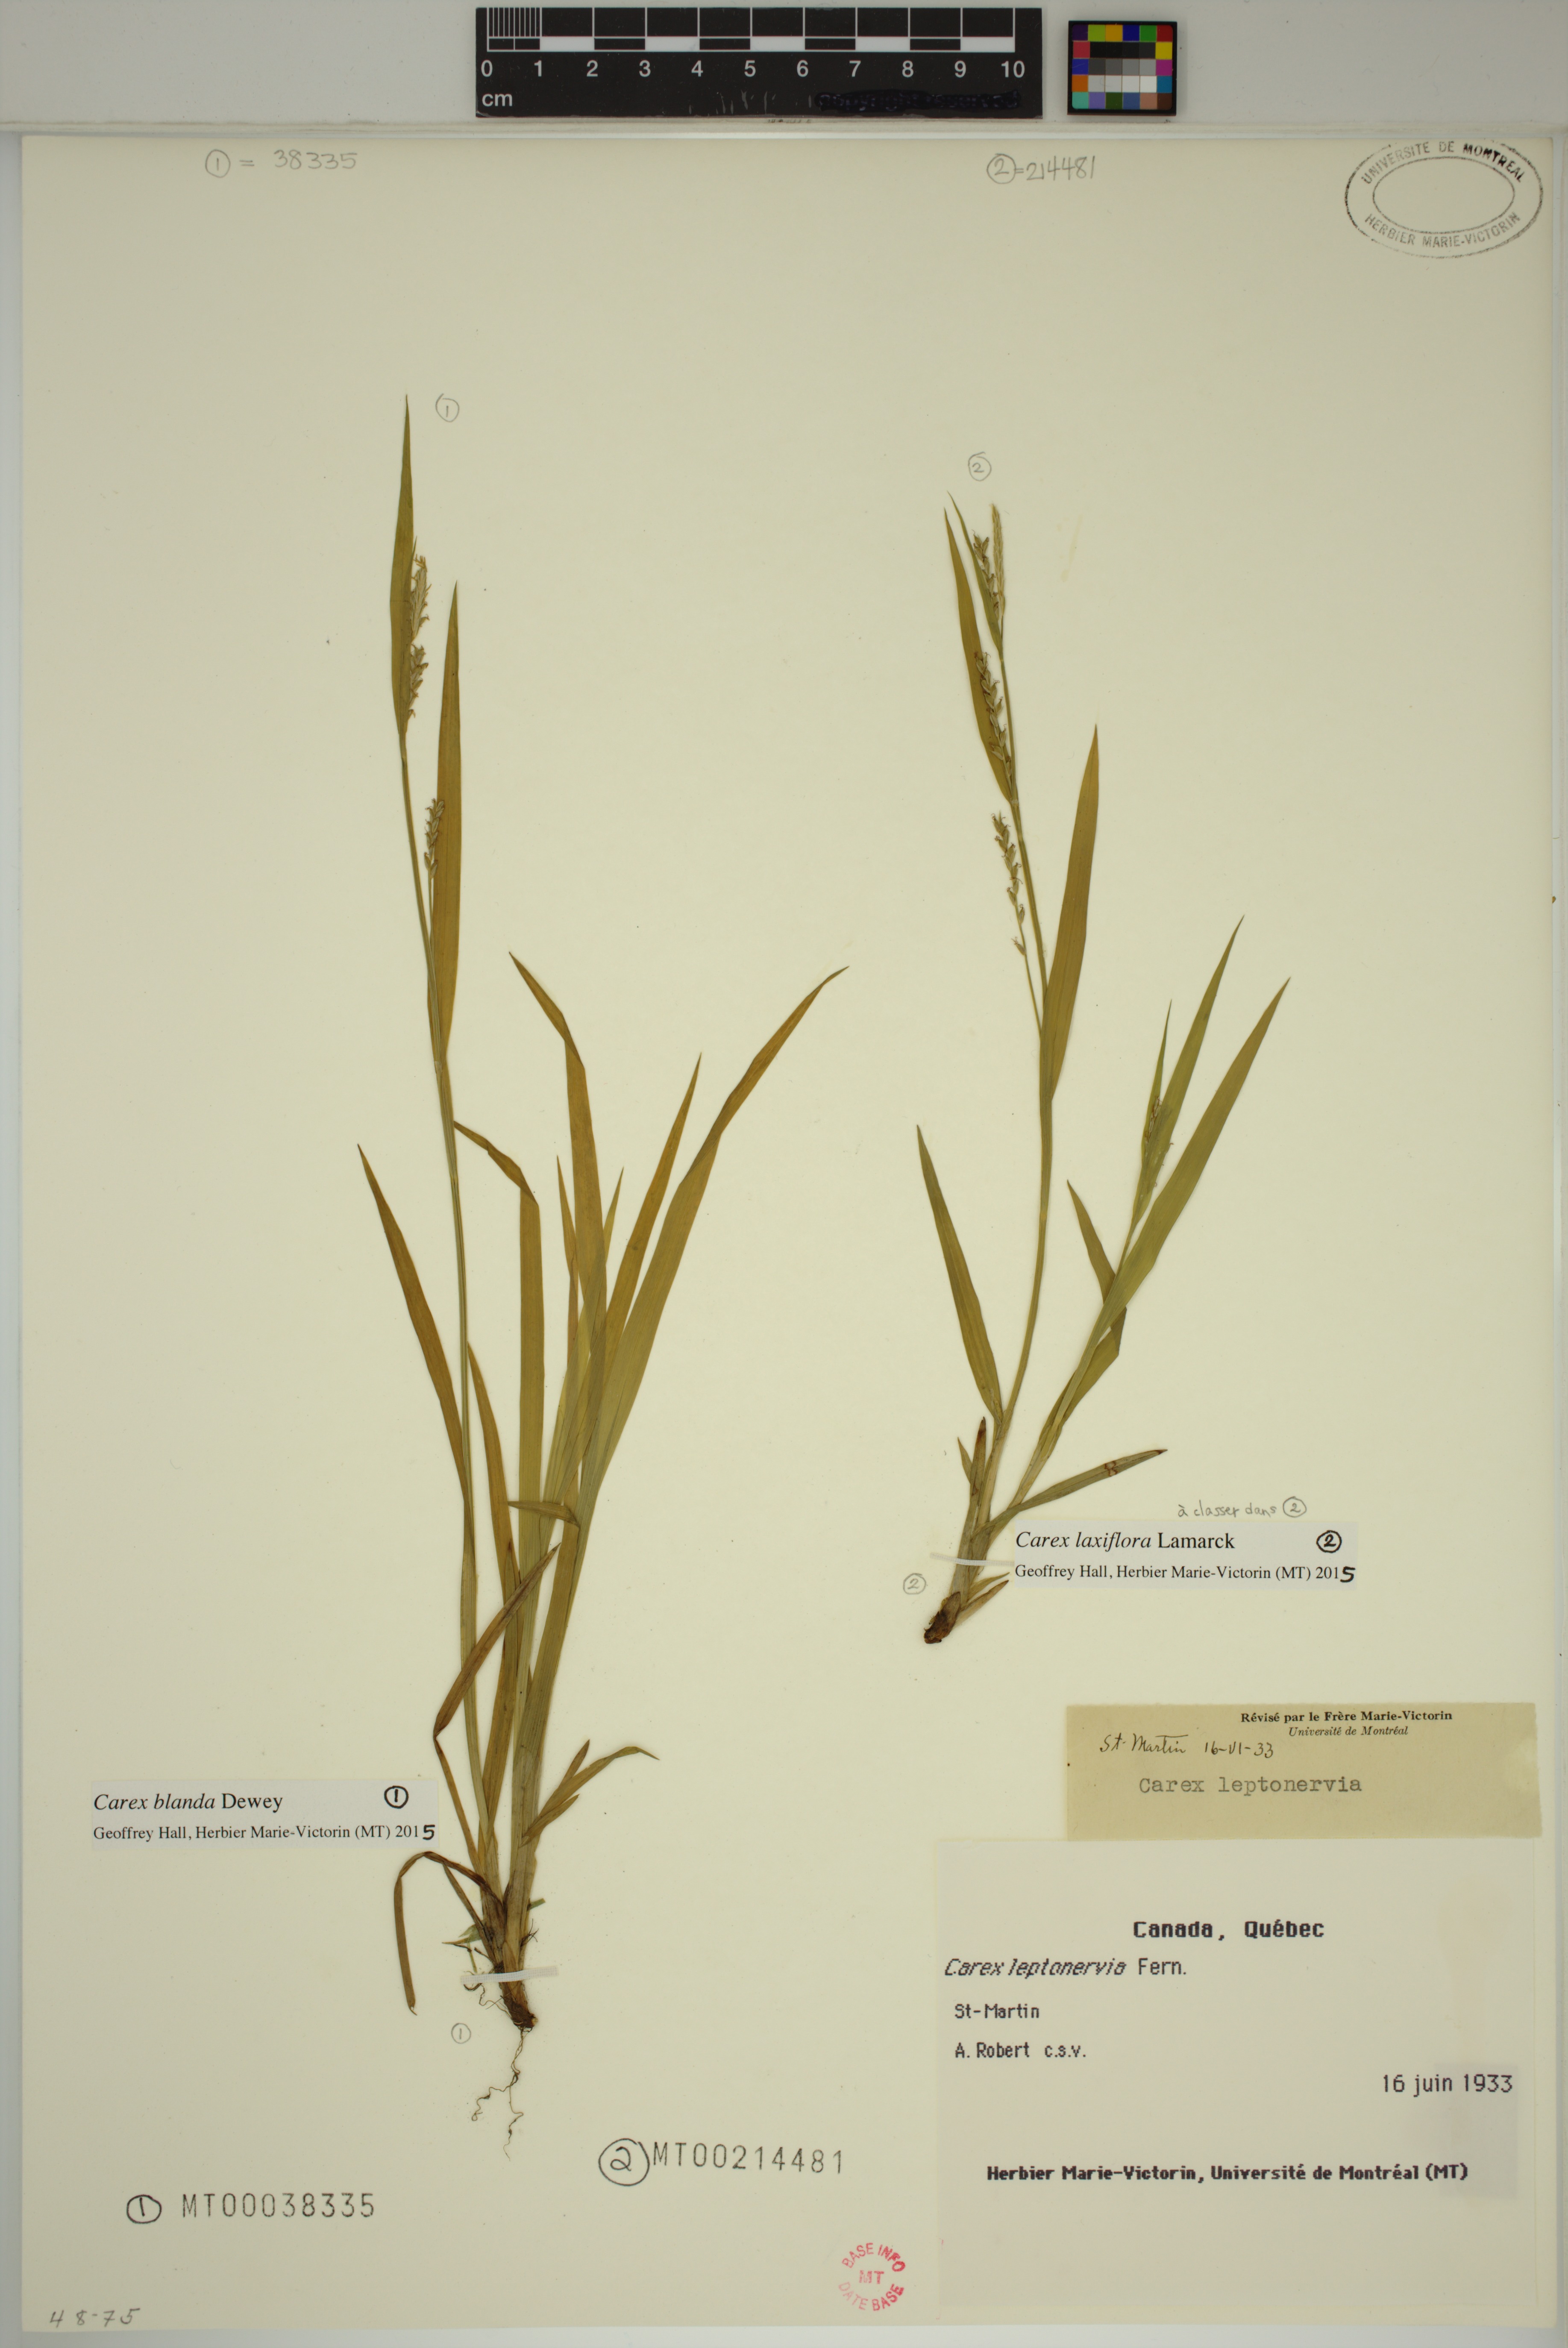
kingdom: Plantae
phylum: Tracheophyta
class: Liliopsida
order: Poales
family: Cyperaceae
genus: Carex
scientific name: Carex blanda
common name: Bland sedge
